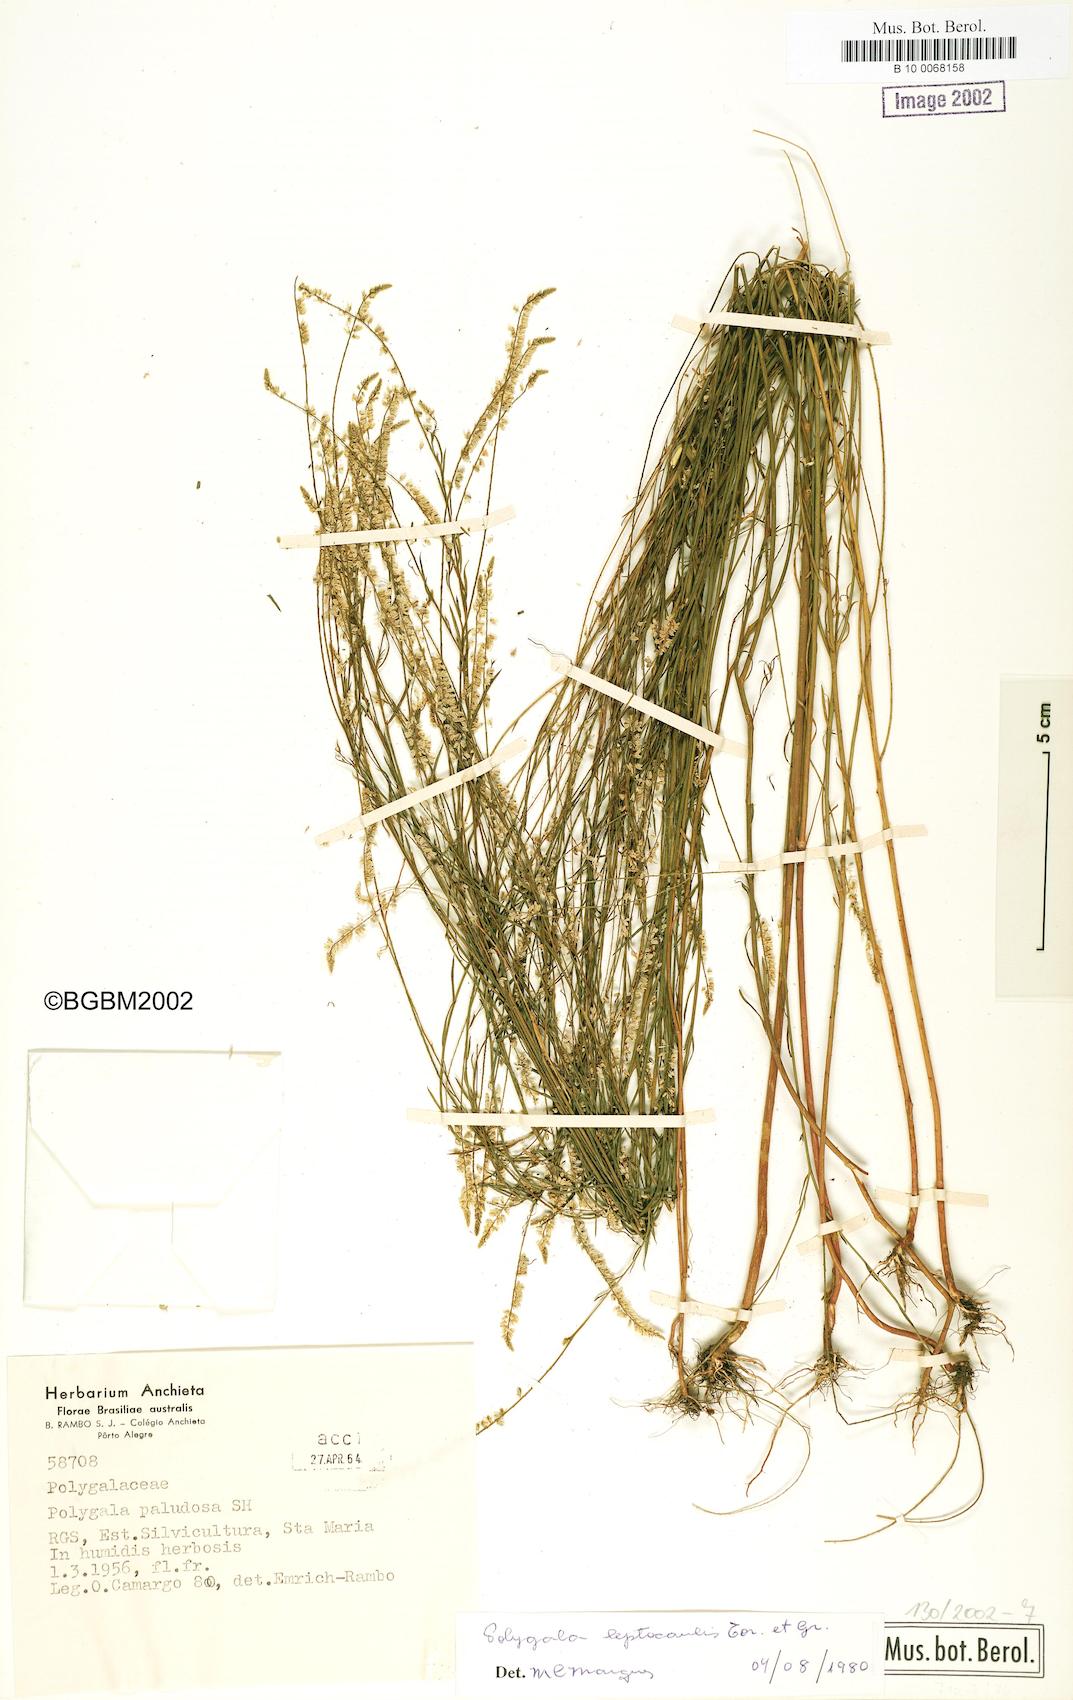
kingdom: Plantae
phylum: Tracheophyta
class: Magnoliopsida
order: Fabales
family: Polygalaceae
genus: Polygala
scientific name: Polygala tenella
